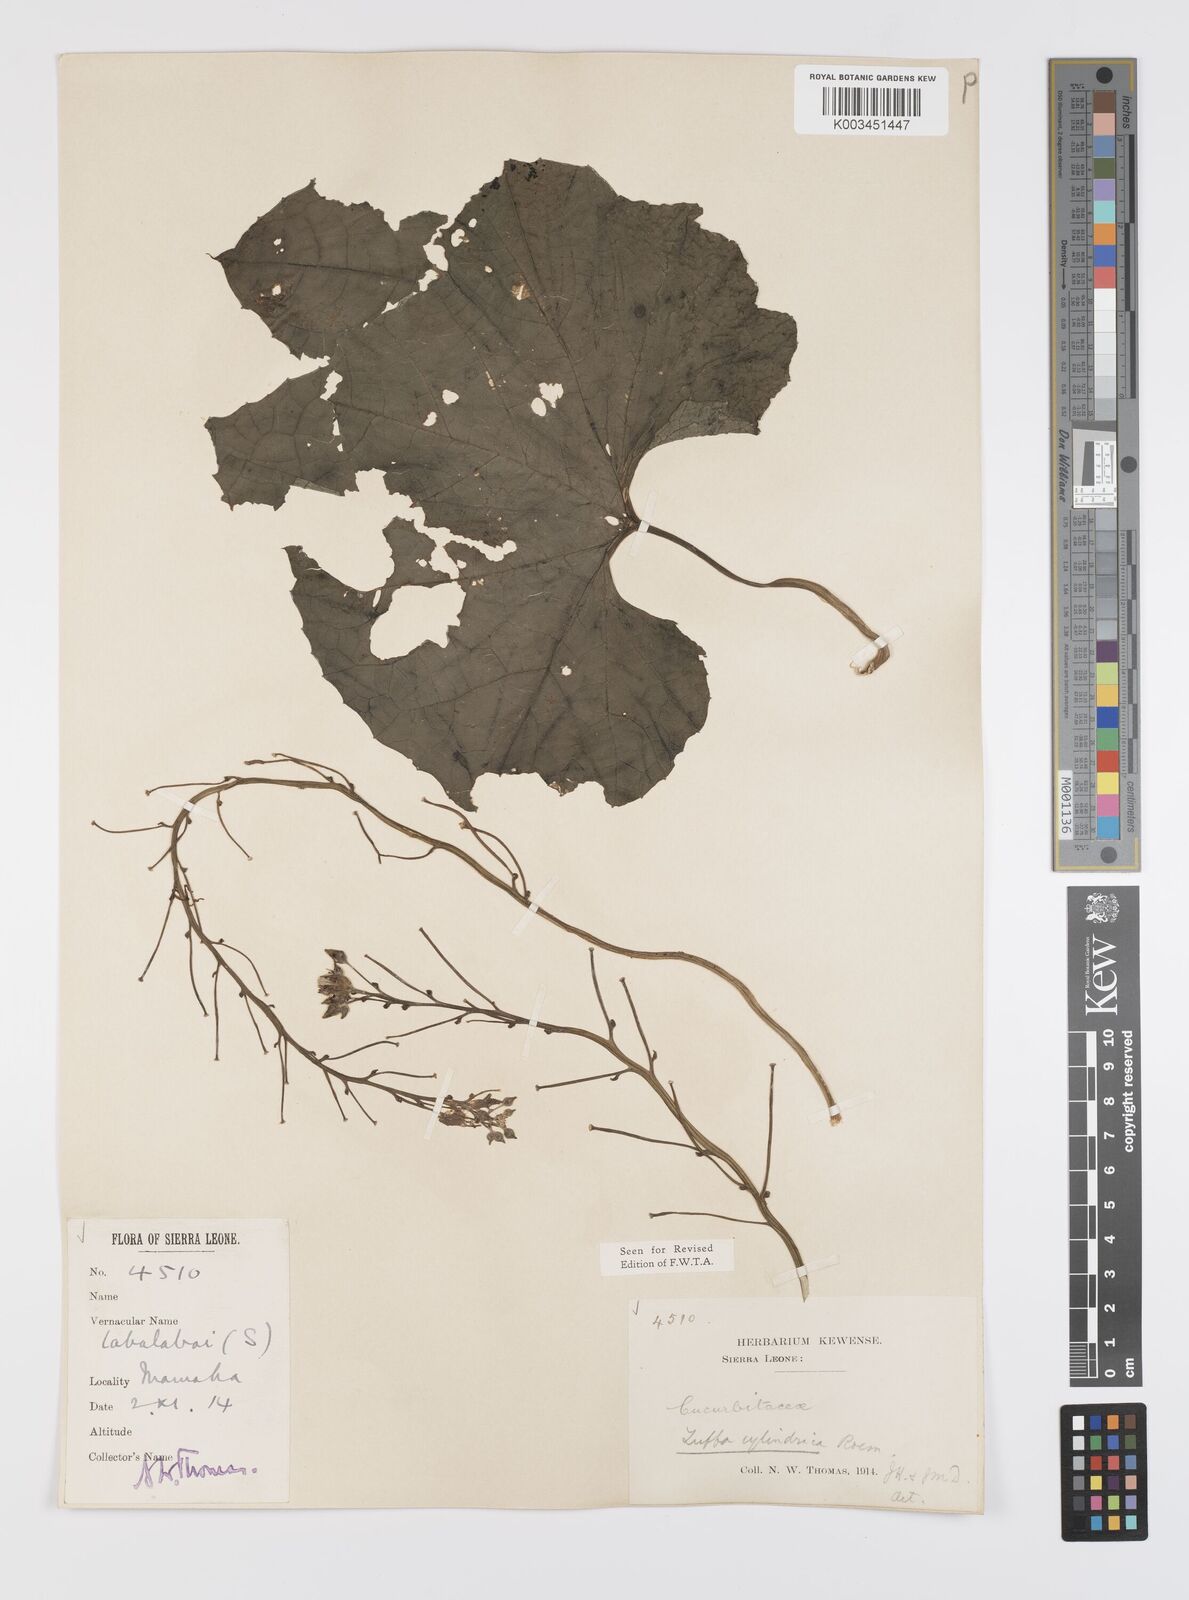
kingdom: Plantae
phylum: Tracheophyta
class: Magnoliopsida
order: Cucurbitales
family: Cucurbitaceae
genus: Luffa
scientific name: Luffa aegyptiaca
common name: Sponge gourd
